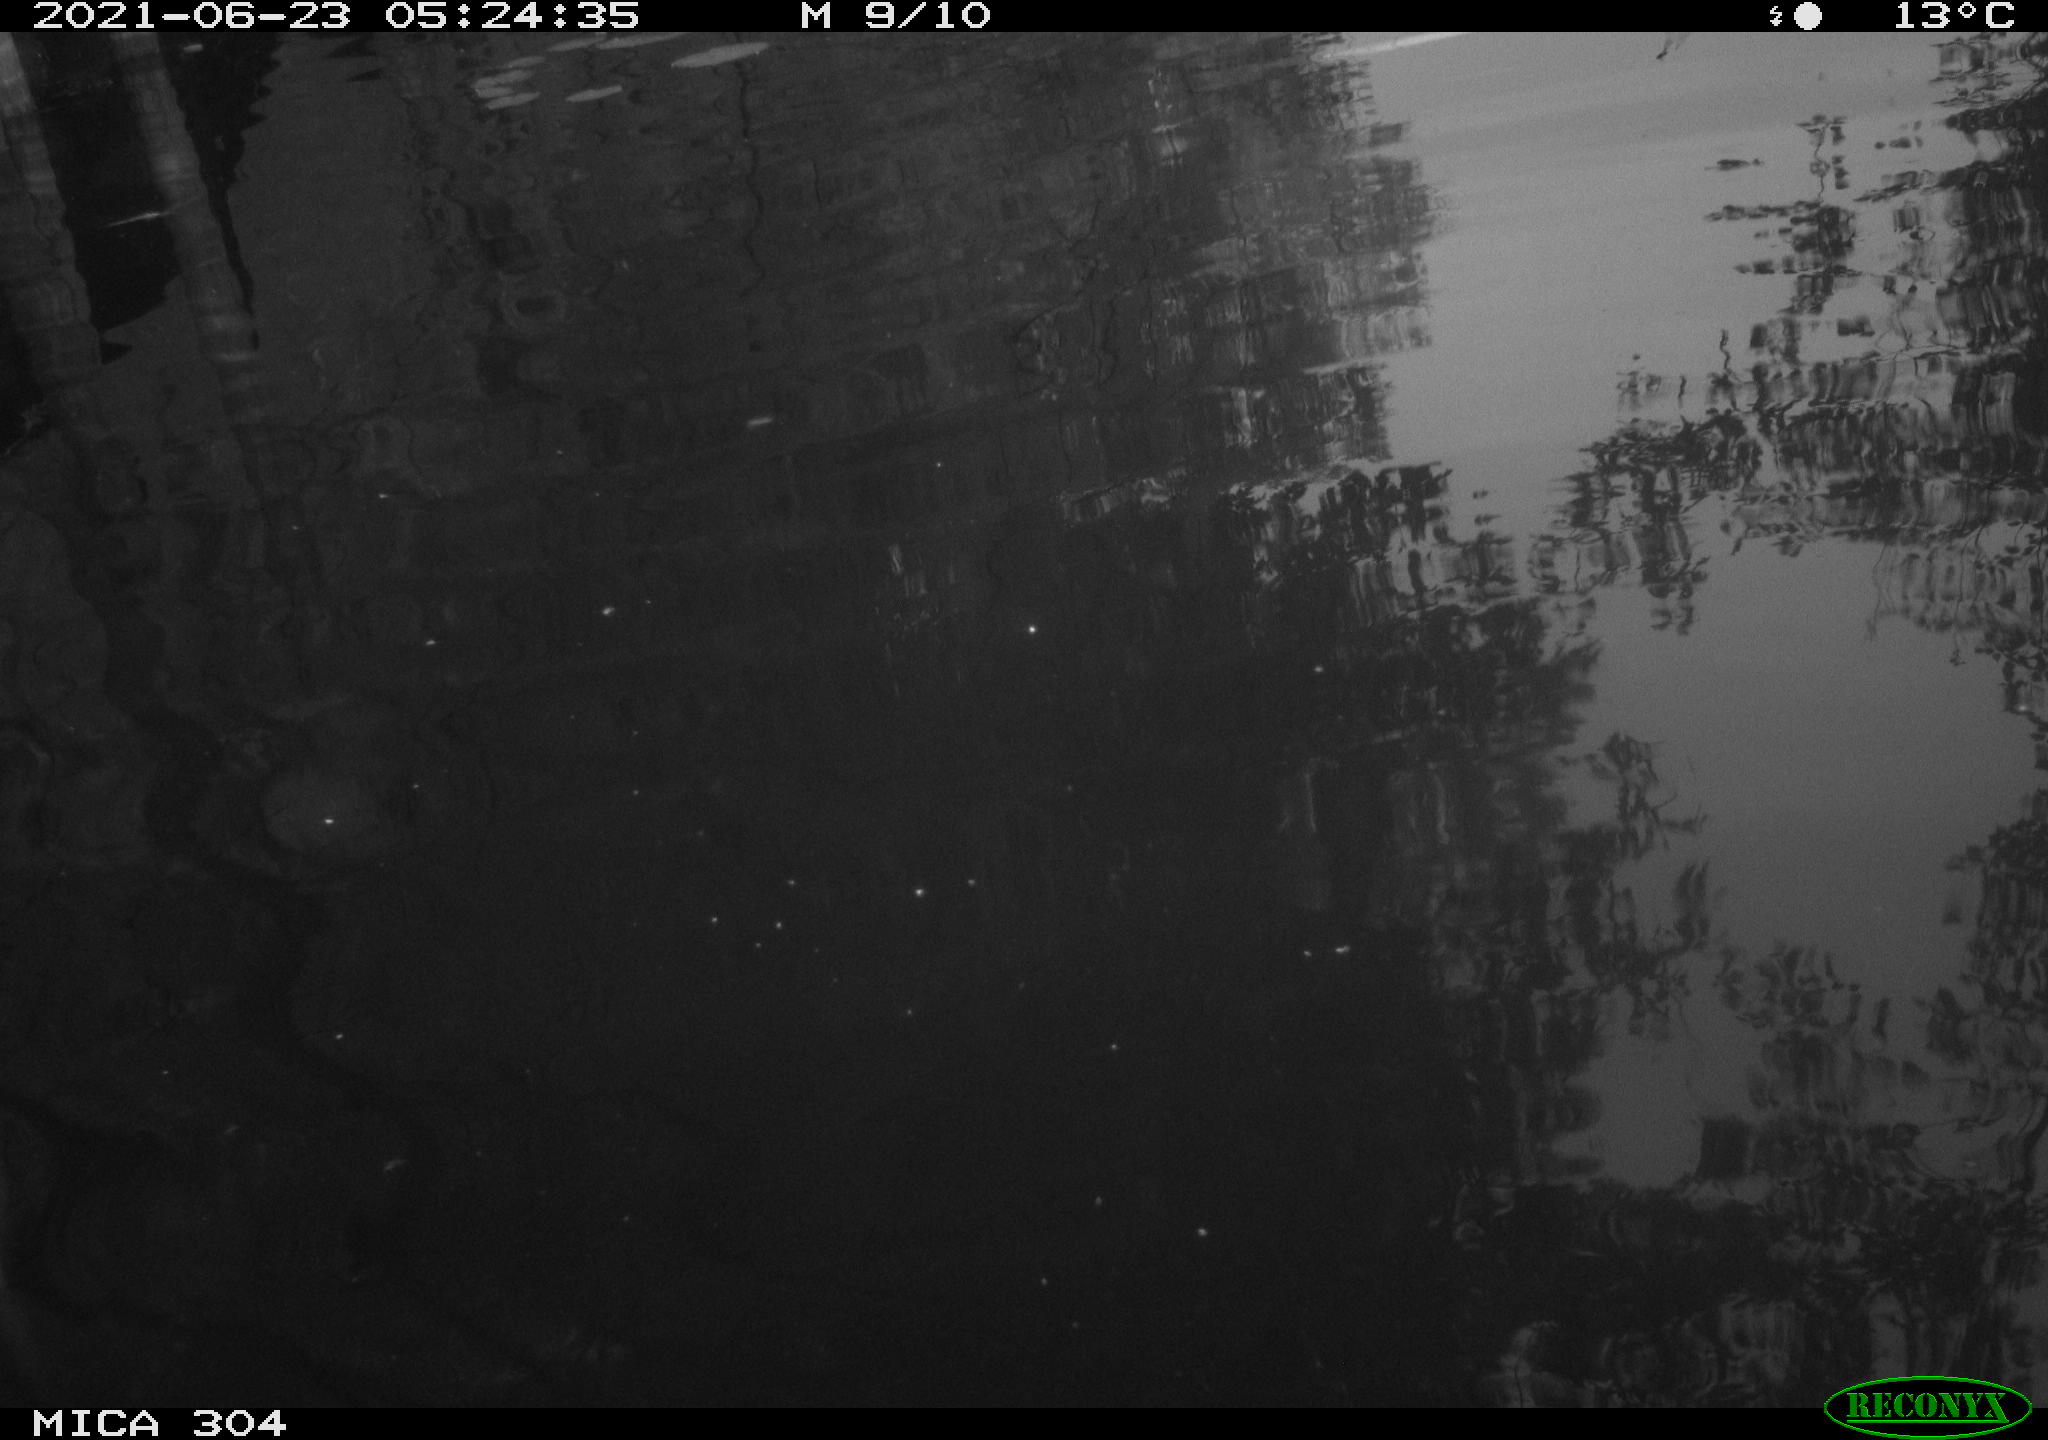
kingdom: Animalia
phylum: Chordata
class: Aves
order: Anseriformes
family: Anatidae
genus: Anas
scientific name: Anas platyrhynchos
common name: Mallard
